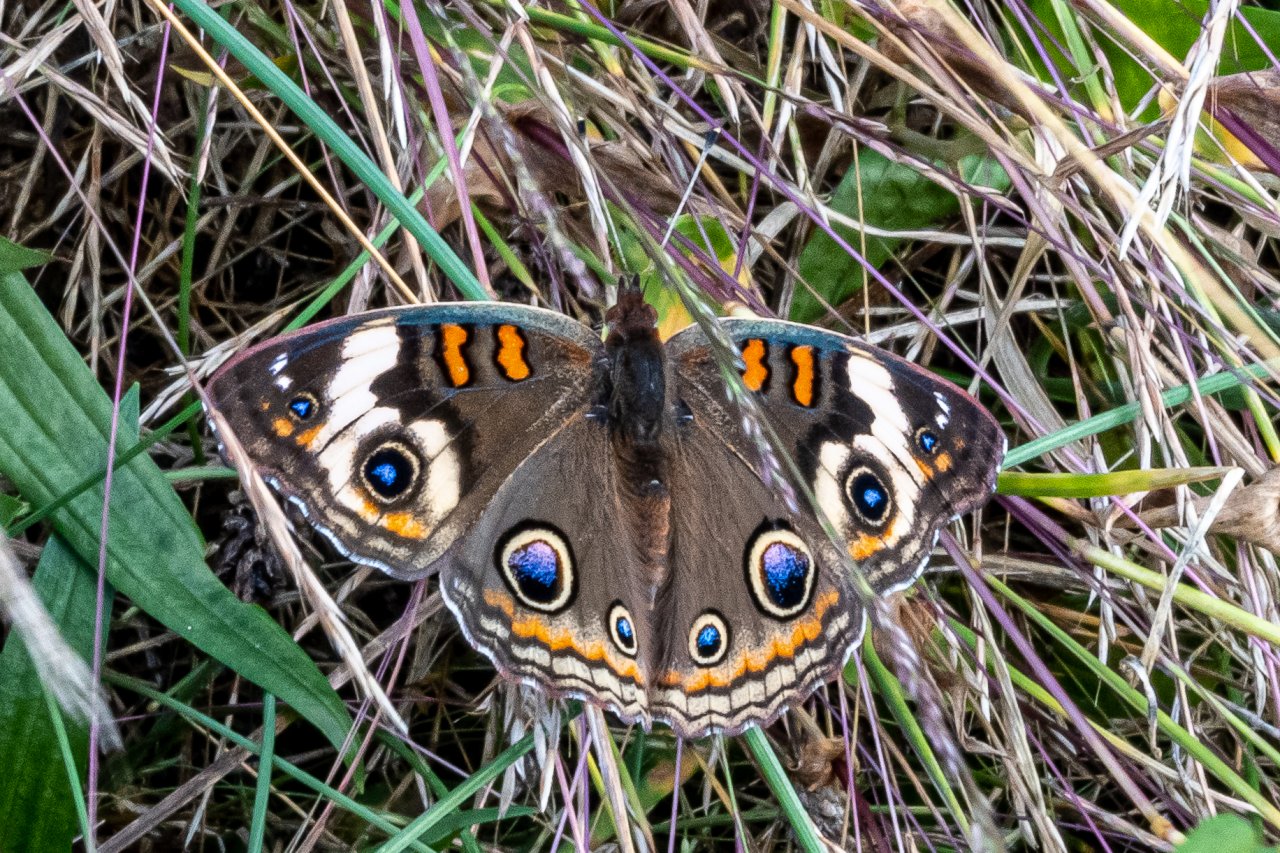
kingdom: Animalia
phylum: Arthropoda
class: Insecta
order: Lepidoptera
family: Nymphalidae
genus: Junonia
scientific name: Junonia coenia
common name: Common Buckeye
